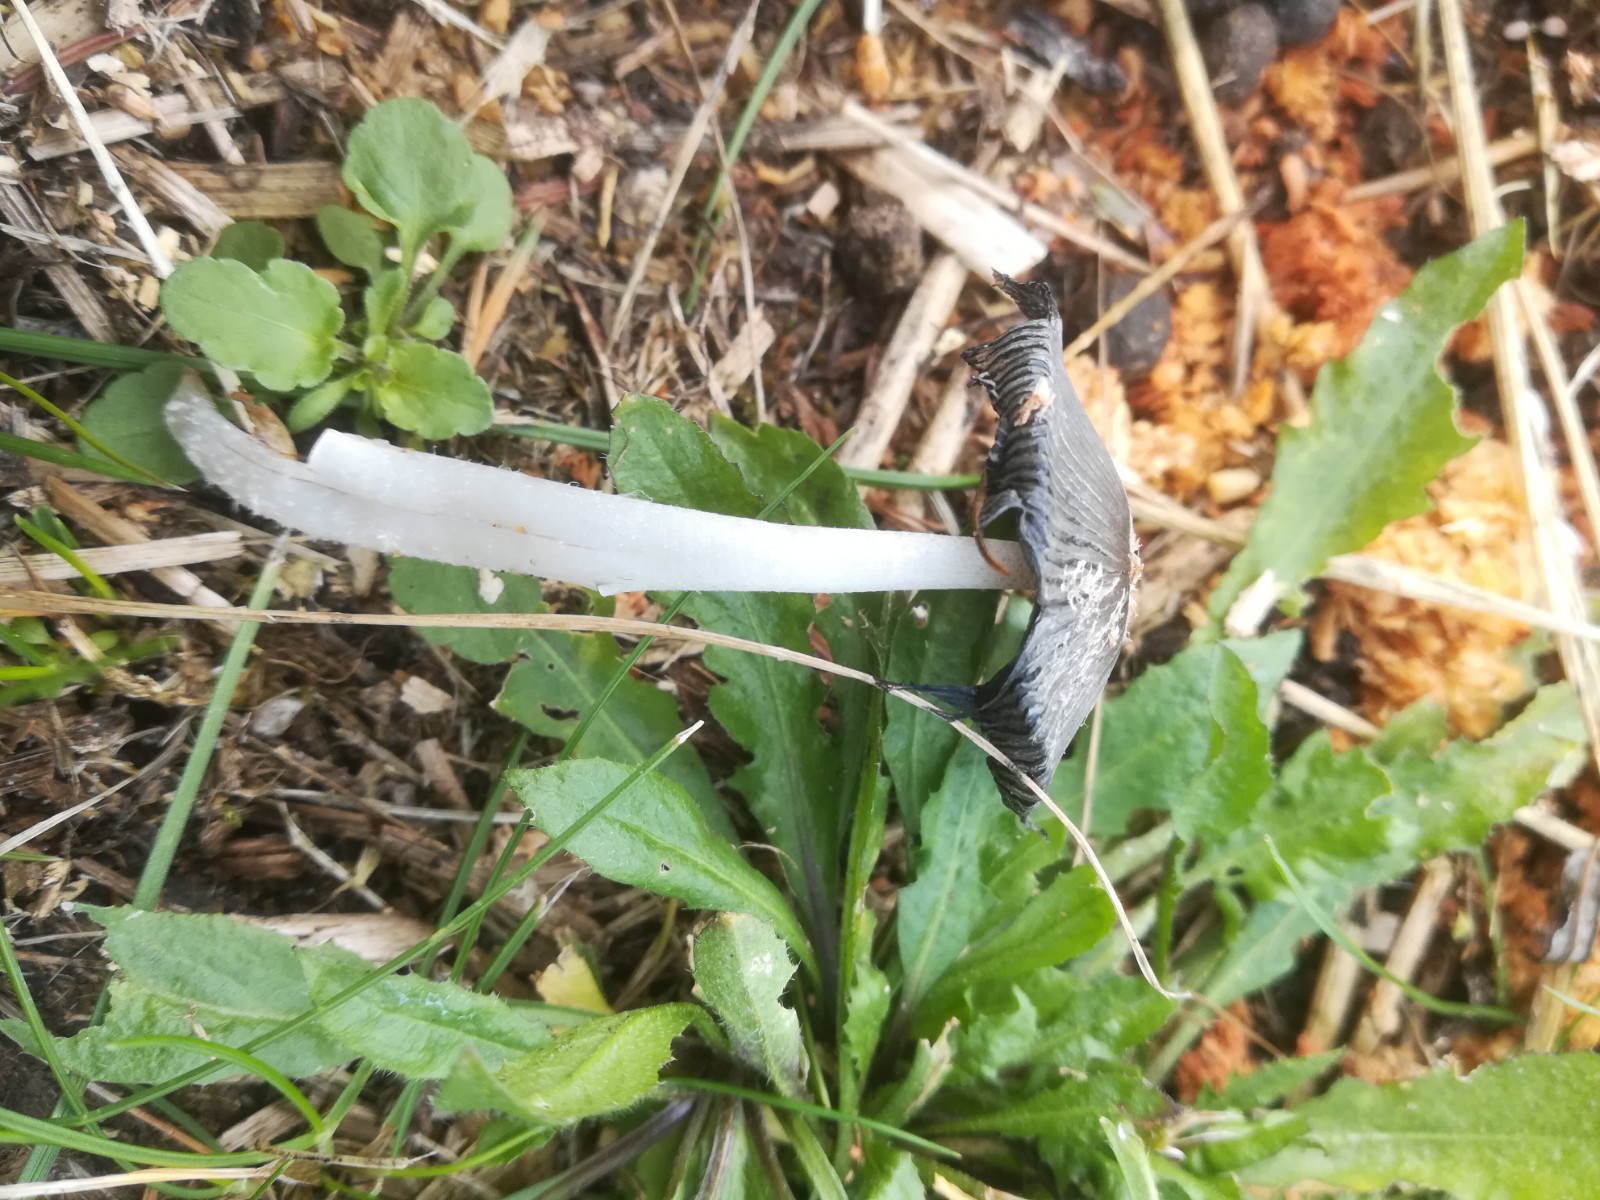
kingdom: Fungi
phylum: Basidiomycota
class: Agaricomycetes
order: Agaricales
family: Psathyrellaceae
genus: Coprinopsis
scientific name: Coprinopsis
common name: blækhat
